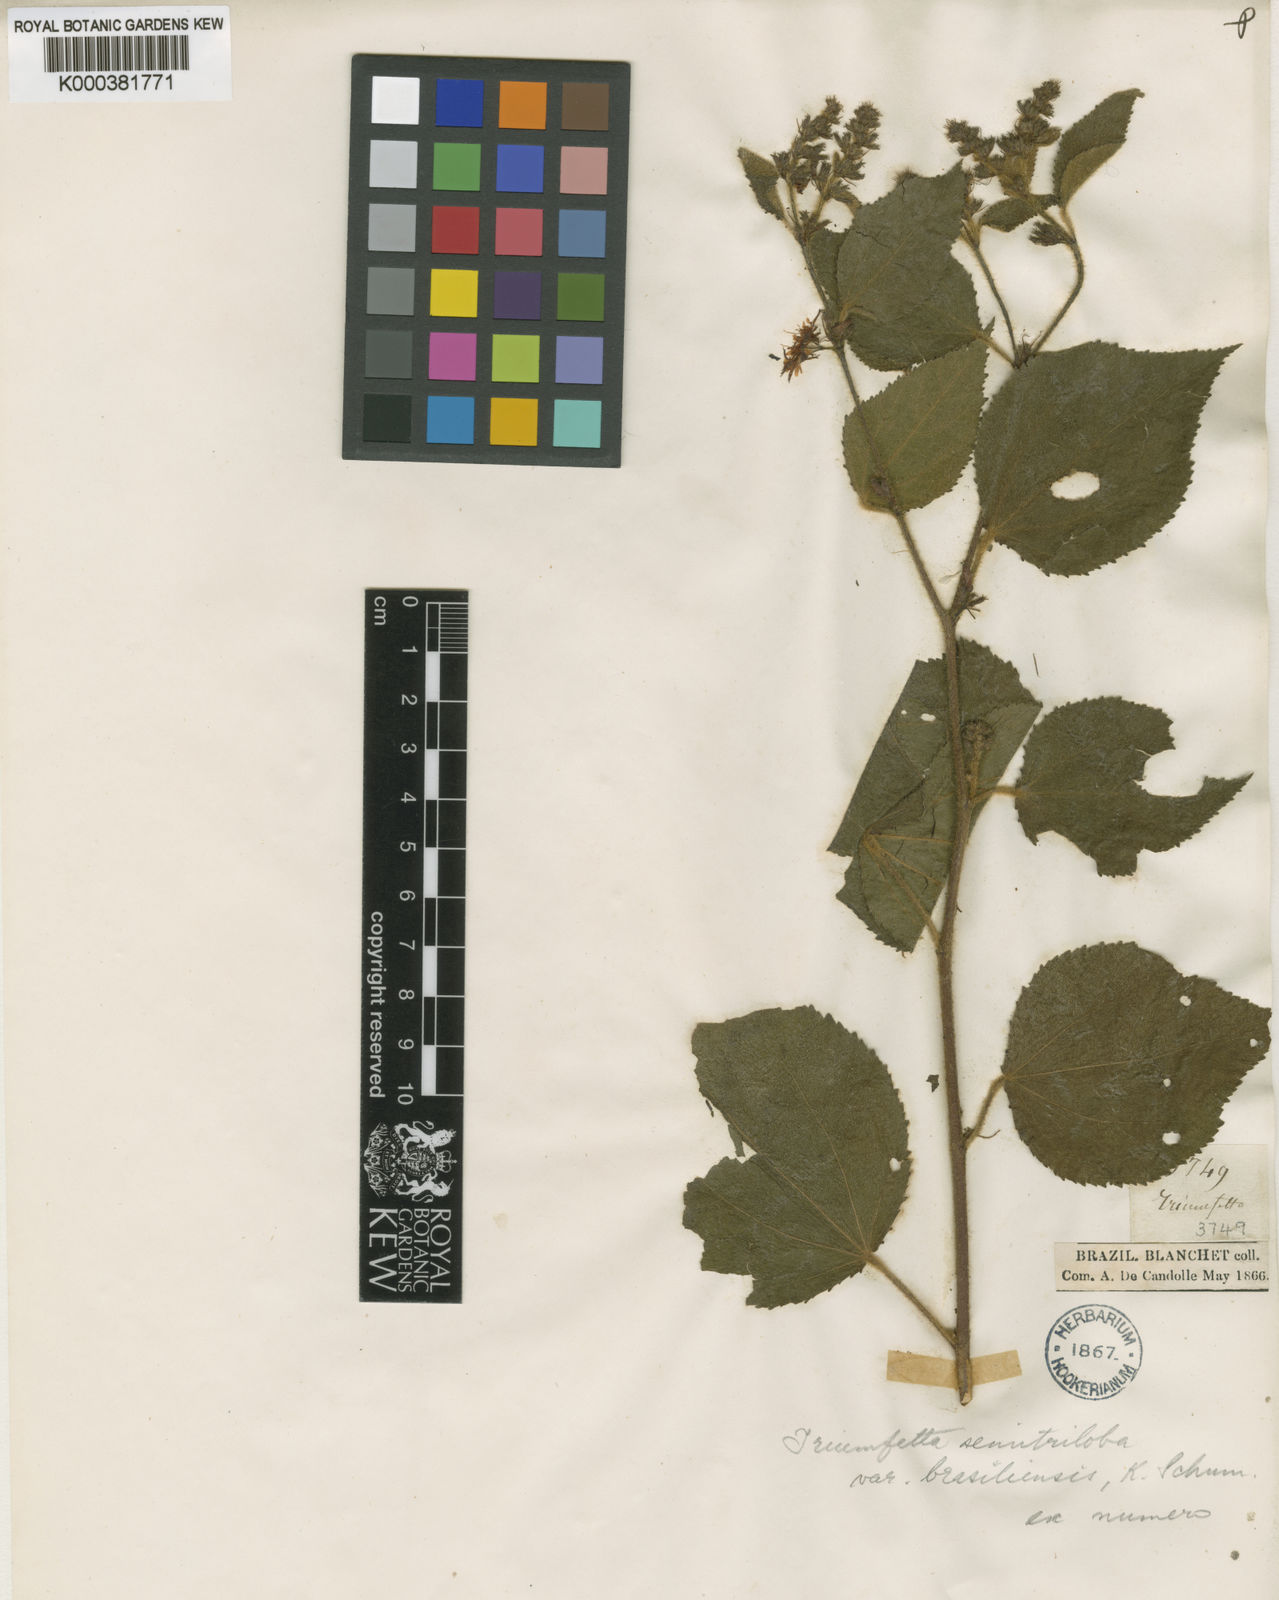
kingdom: Plantae
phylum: Tracheophyta
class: Magnoliopsida
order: Malvales
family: Malvaceae
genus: Triumfetta
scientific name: Triumfetta semitriloba
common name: Sacramento burbark
